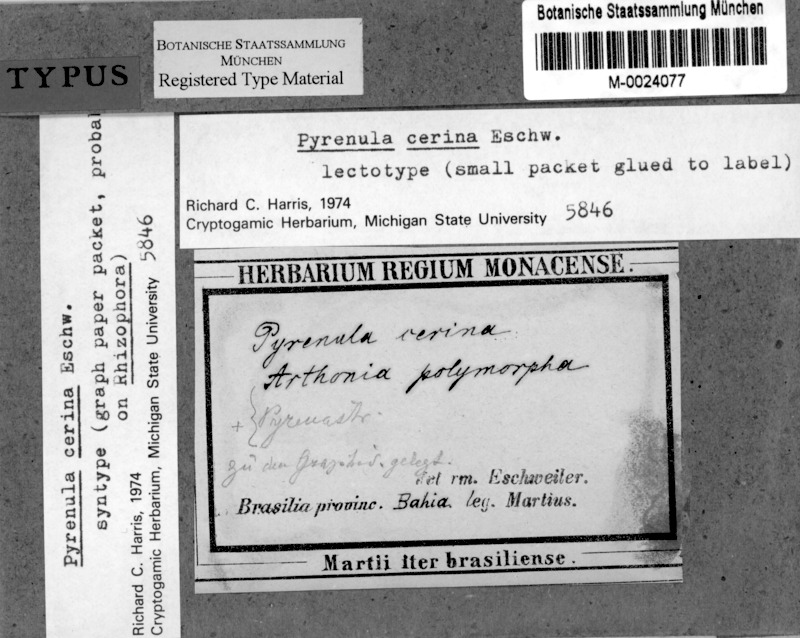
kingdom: Fungi
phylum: Ascomycota
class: Eurotiomycetes
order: Pyrenulales
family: Pyrenulaceae
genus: Pyrenula
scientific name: Pyrenula cerina
